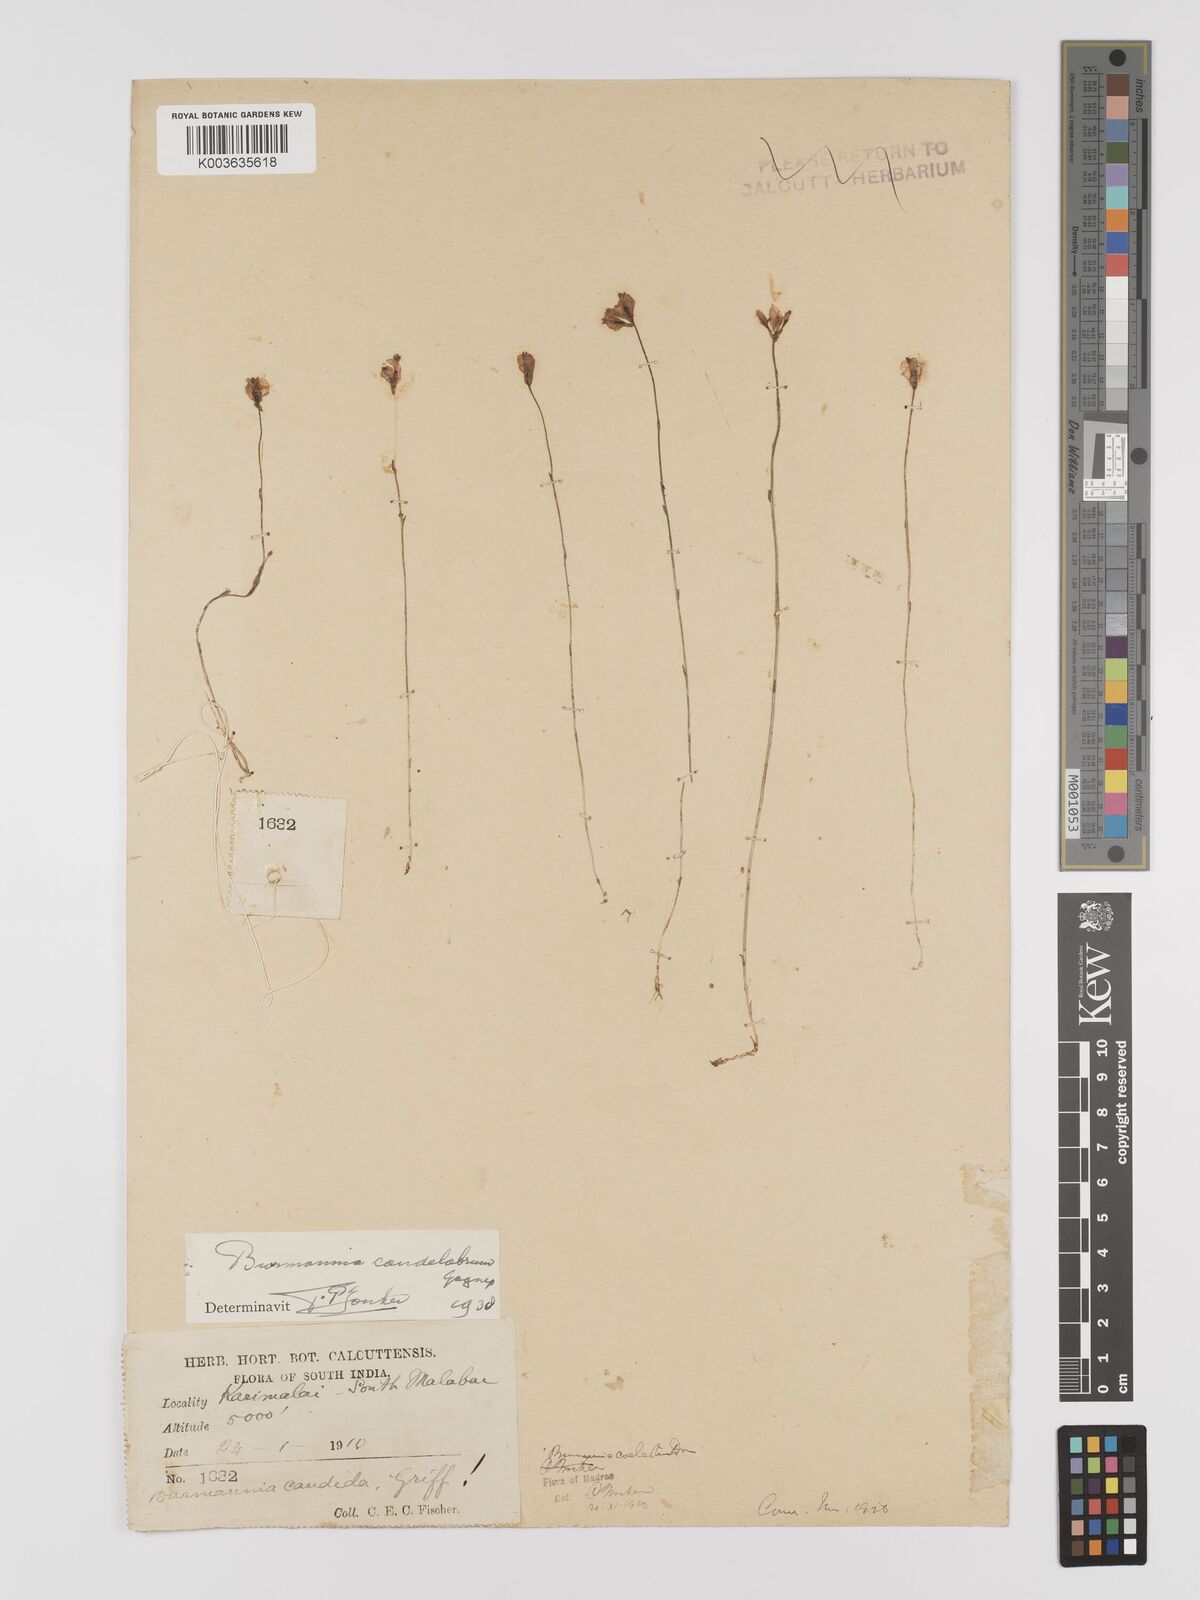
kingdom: Plantae
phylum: Tracheophyta
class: Liliopsida
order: Dioscoreales
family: Burmanniaceae
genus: Burmannia
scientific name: Burmannia candelabrum
